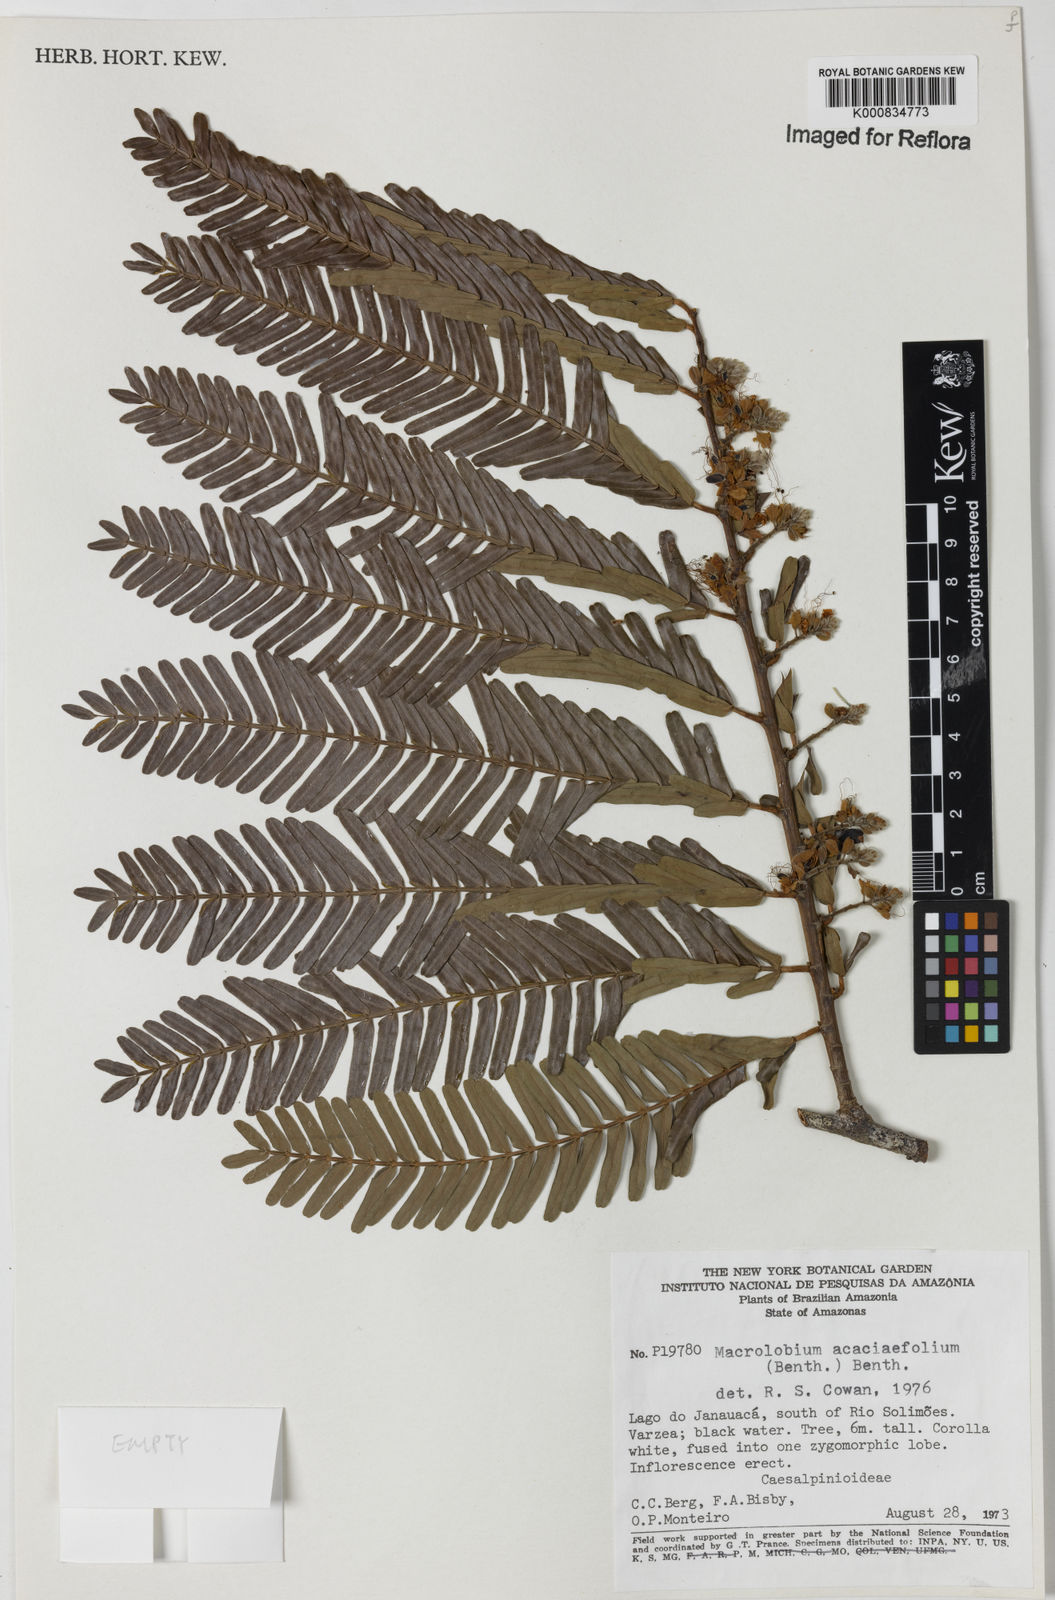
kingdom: Plantae
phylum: Tracheophyta
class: Magnoliopsida
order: Fabales
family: Fabaceae
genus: Macrolobium
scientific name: Macrolobium acaciifolium
